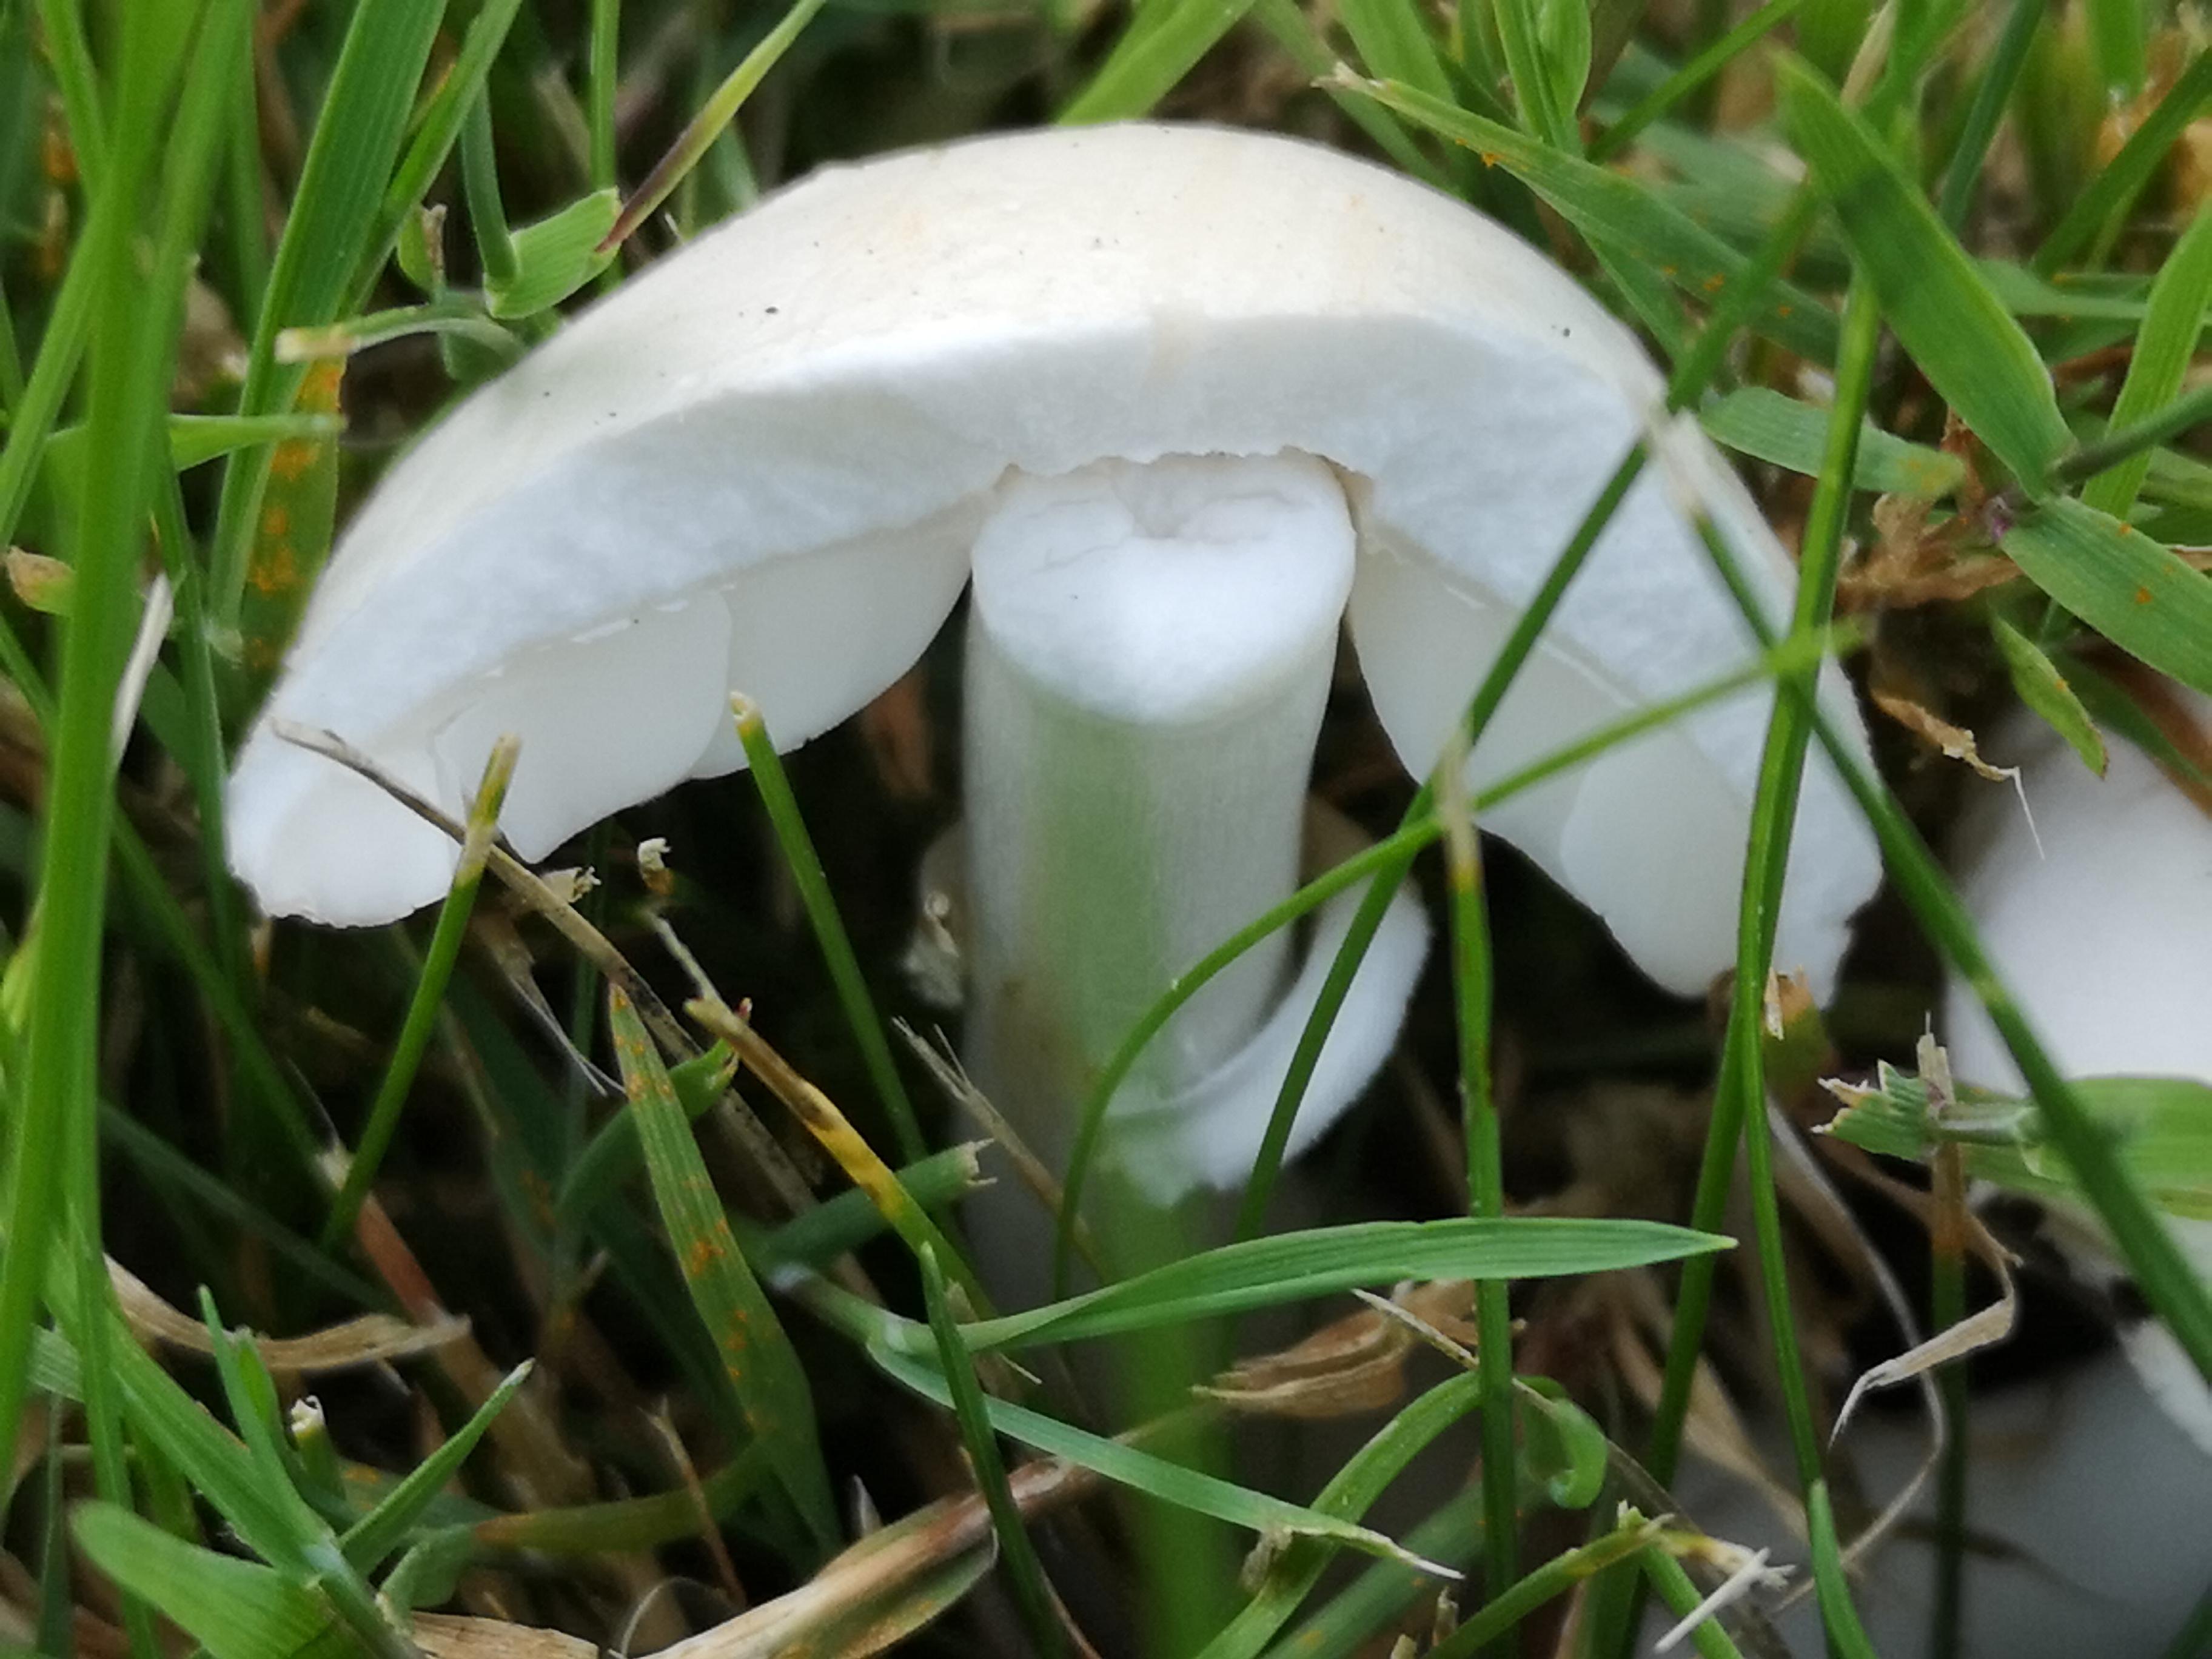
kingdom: Fungi
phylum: Basidiomycota
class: Agaricomycetes
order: Agaricales
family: Agaricaceae
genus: Leucoagaricus
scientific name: Leucoagaricus leucothites
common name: rosabladet silkehat
